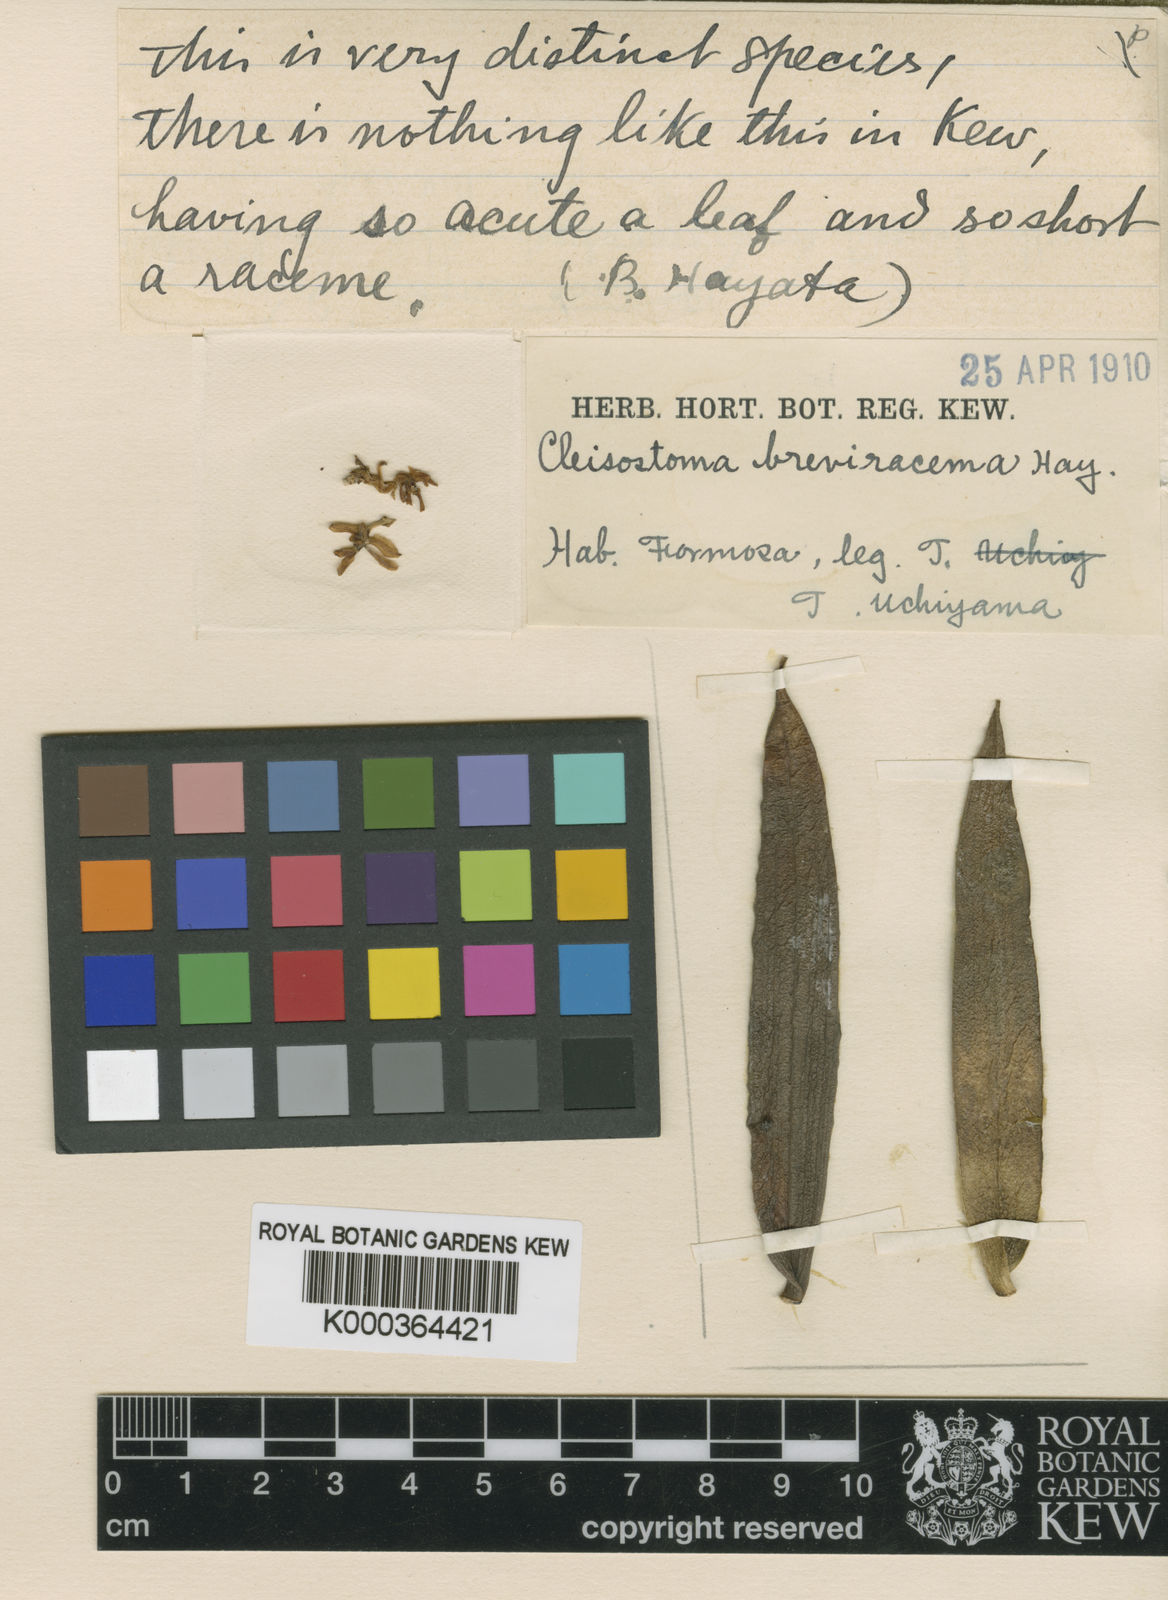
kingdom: Plantae
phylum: Tracheophyta
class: Liliopsida
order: Asparagales
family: Orchidaceae
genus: Trichoglottis
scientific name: Trichoglottis rosea
